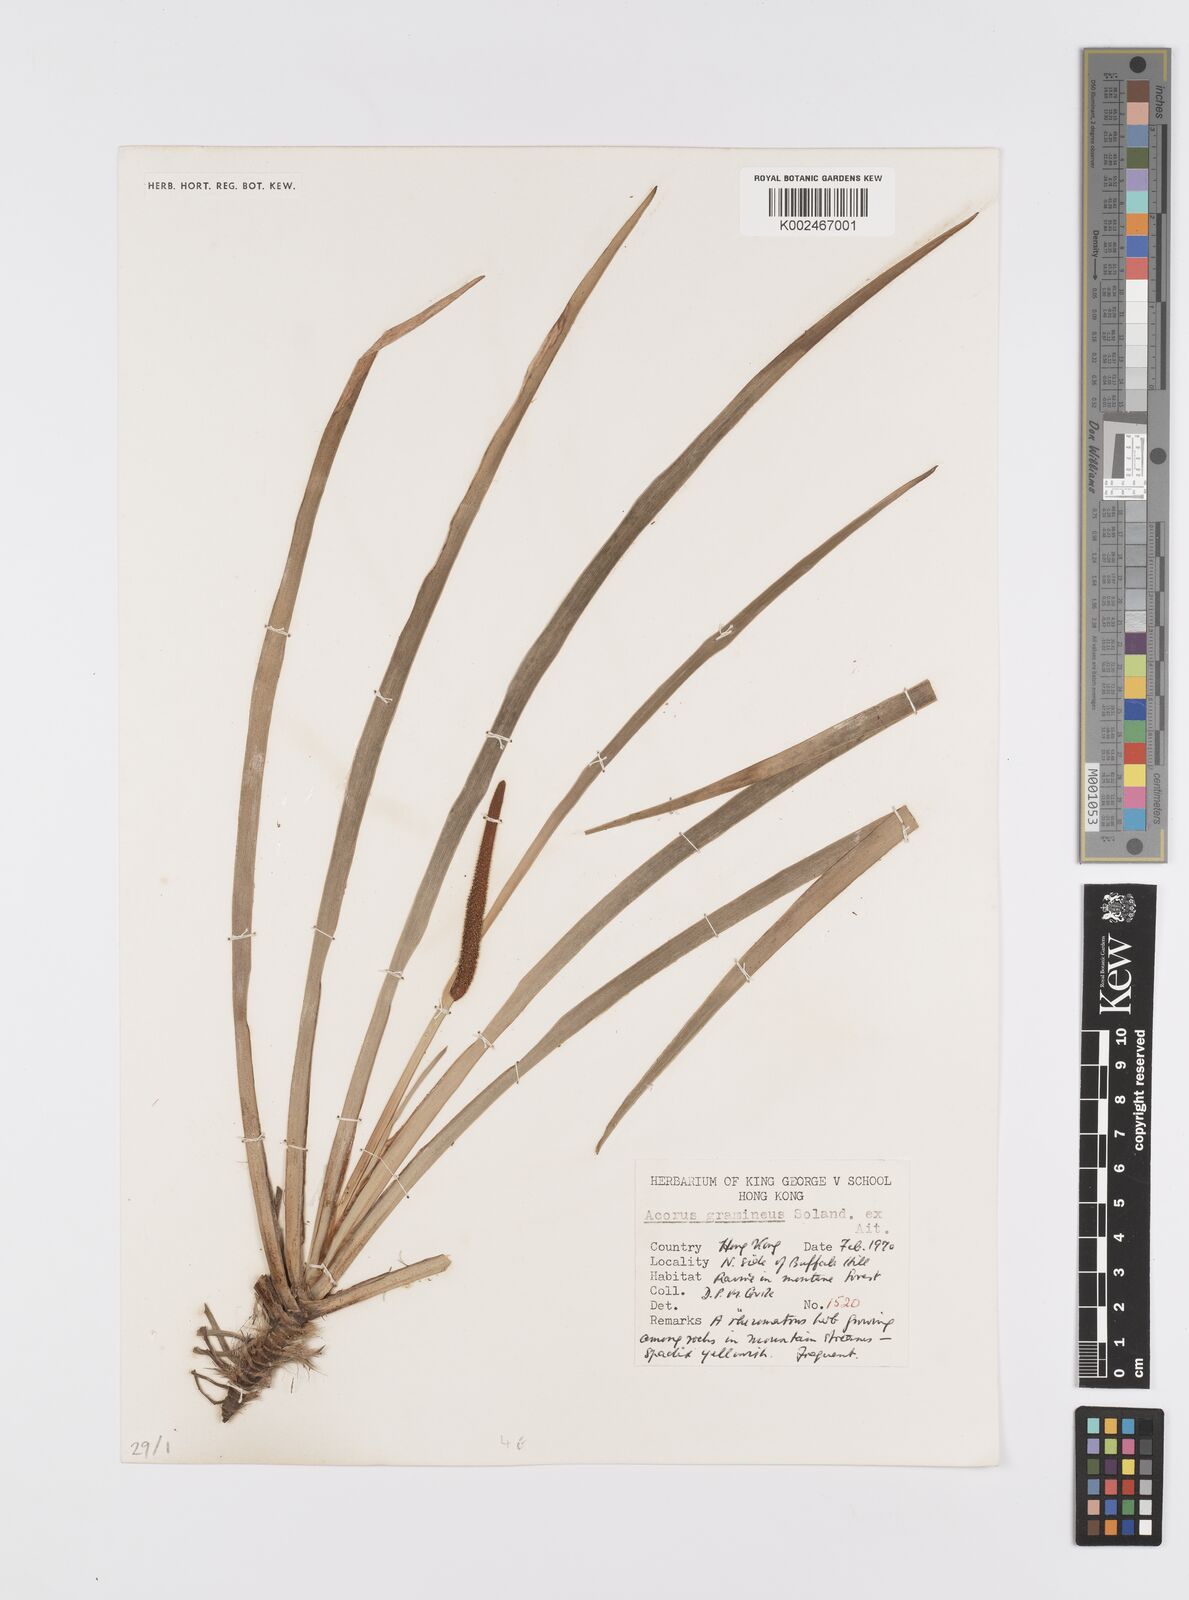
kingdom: Plantae
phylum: Tracheophyta
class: Liliopsida
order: Acorales
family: Acoraceae
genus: Acorus
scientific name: Acorus gramineus
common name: Slender sweet-flag
